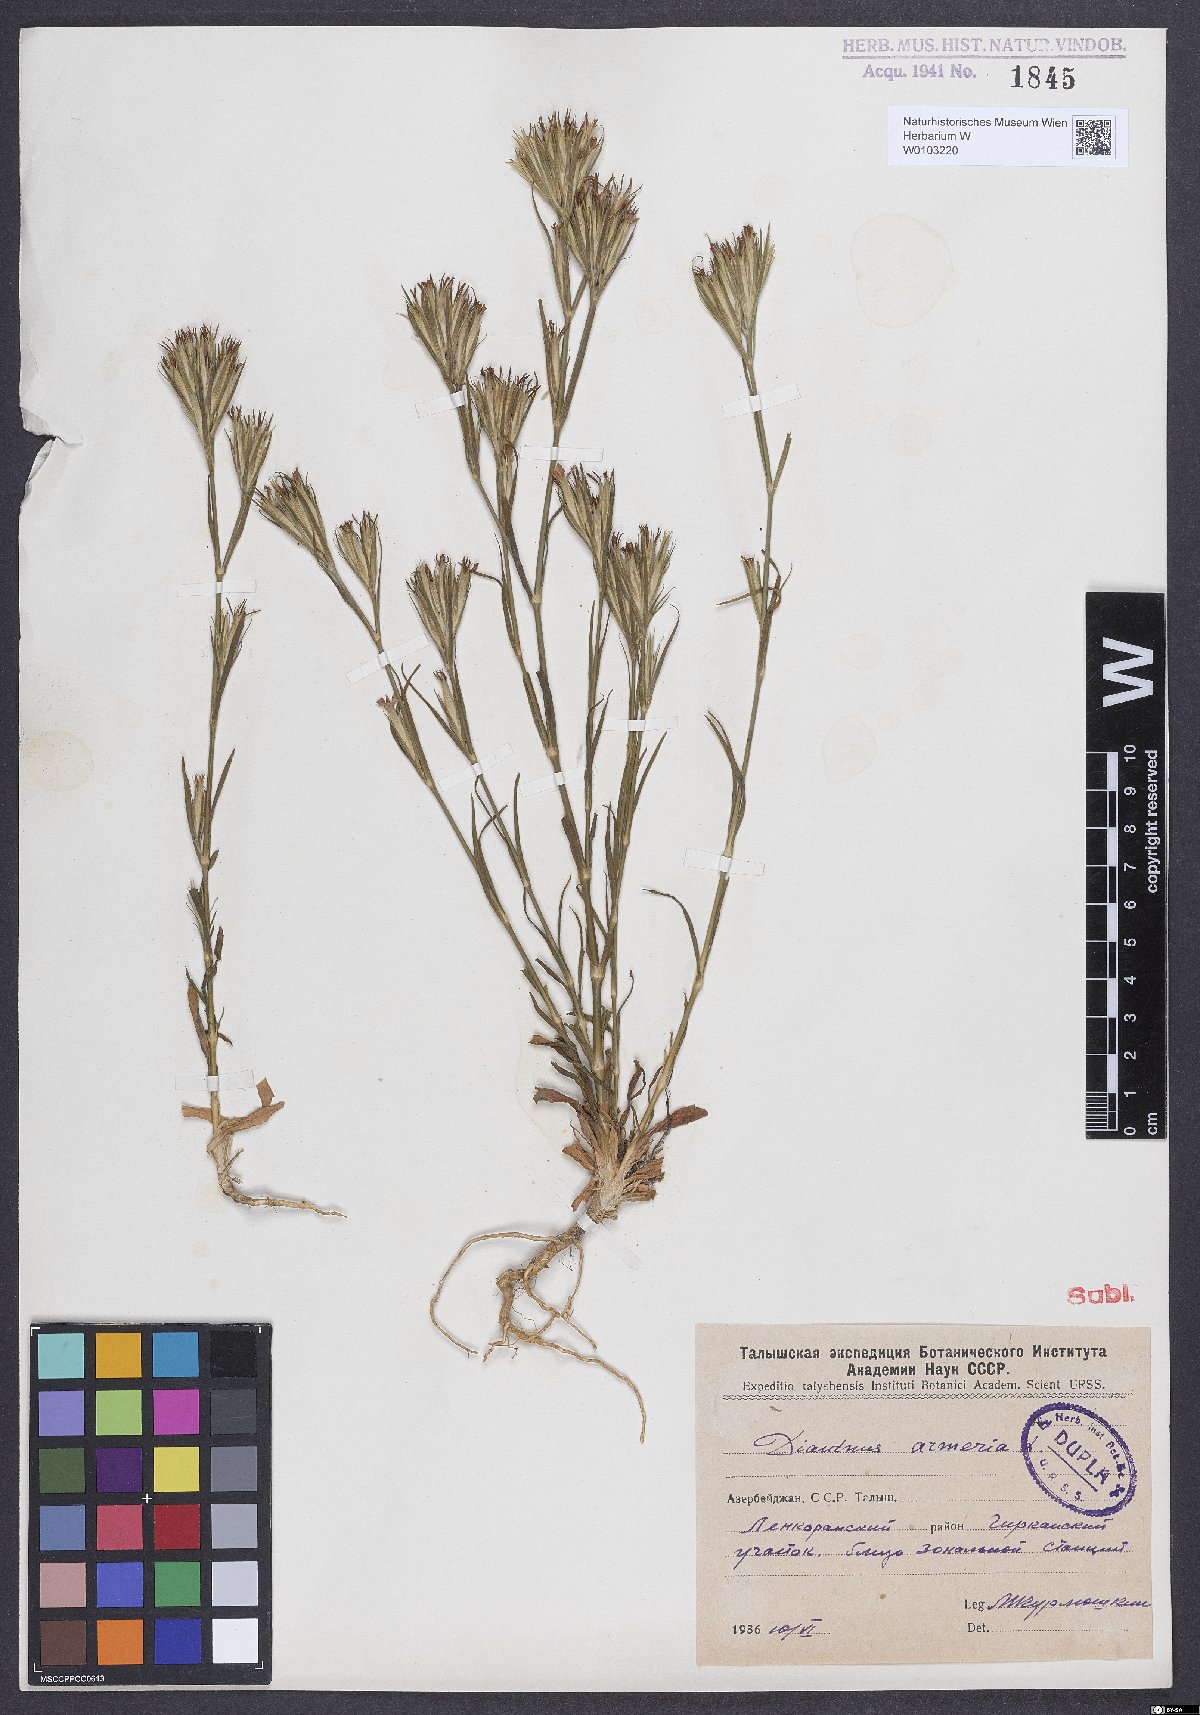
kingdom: Plantae
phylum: Tracheophyta
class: Magnoliopsida
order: Caryophyllales
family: Caryophyllaceae
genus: Dianthus
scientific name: Dianthus armeria
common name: Deptford pink
